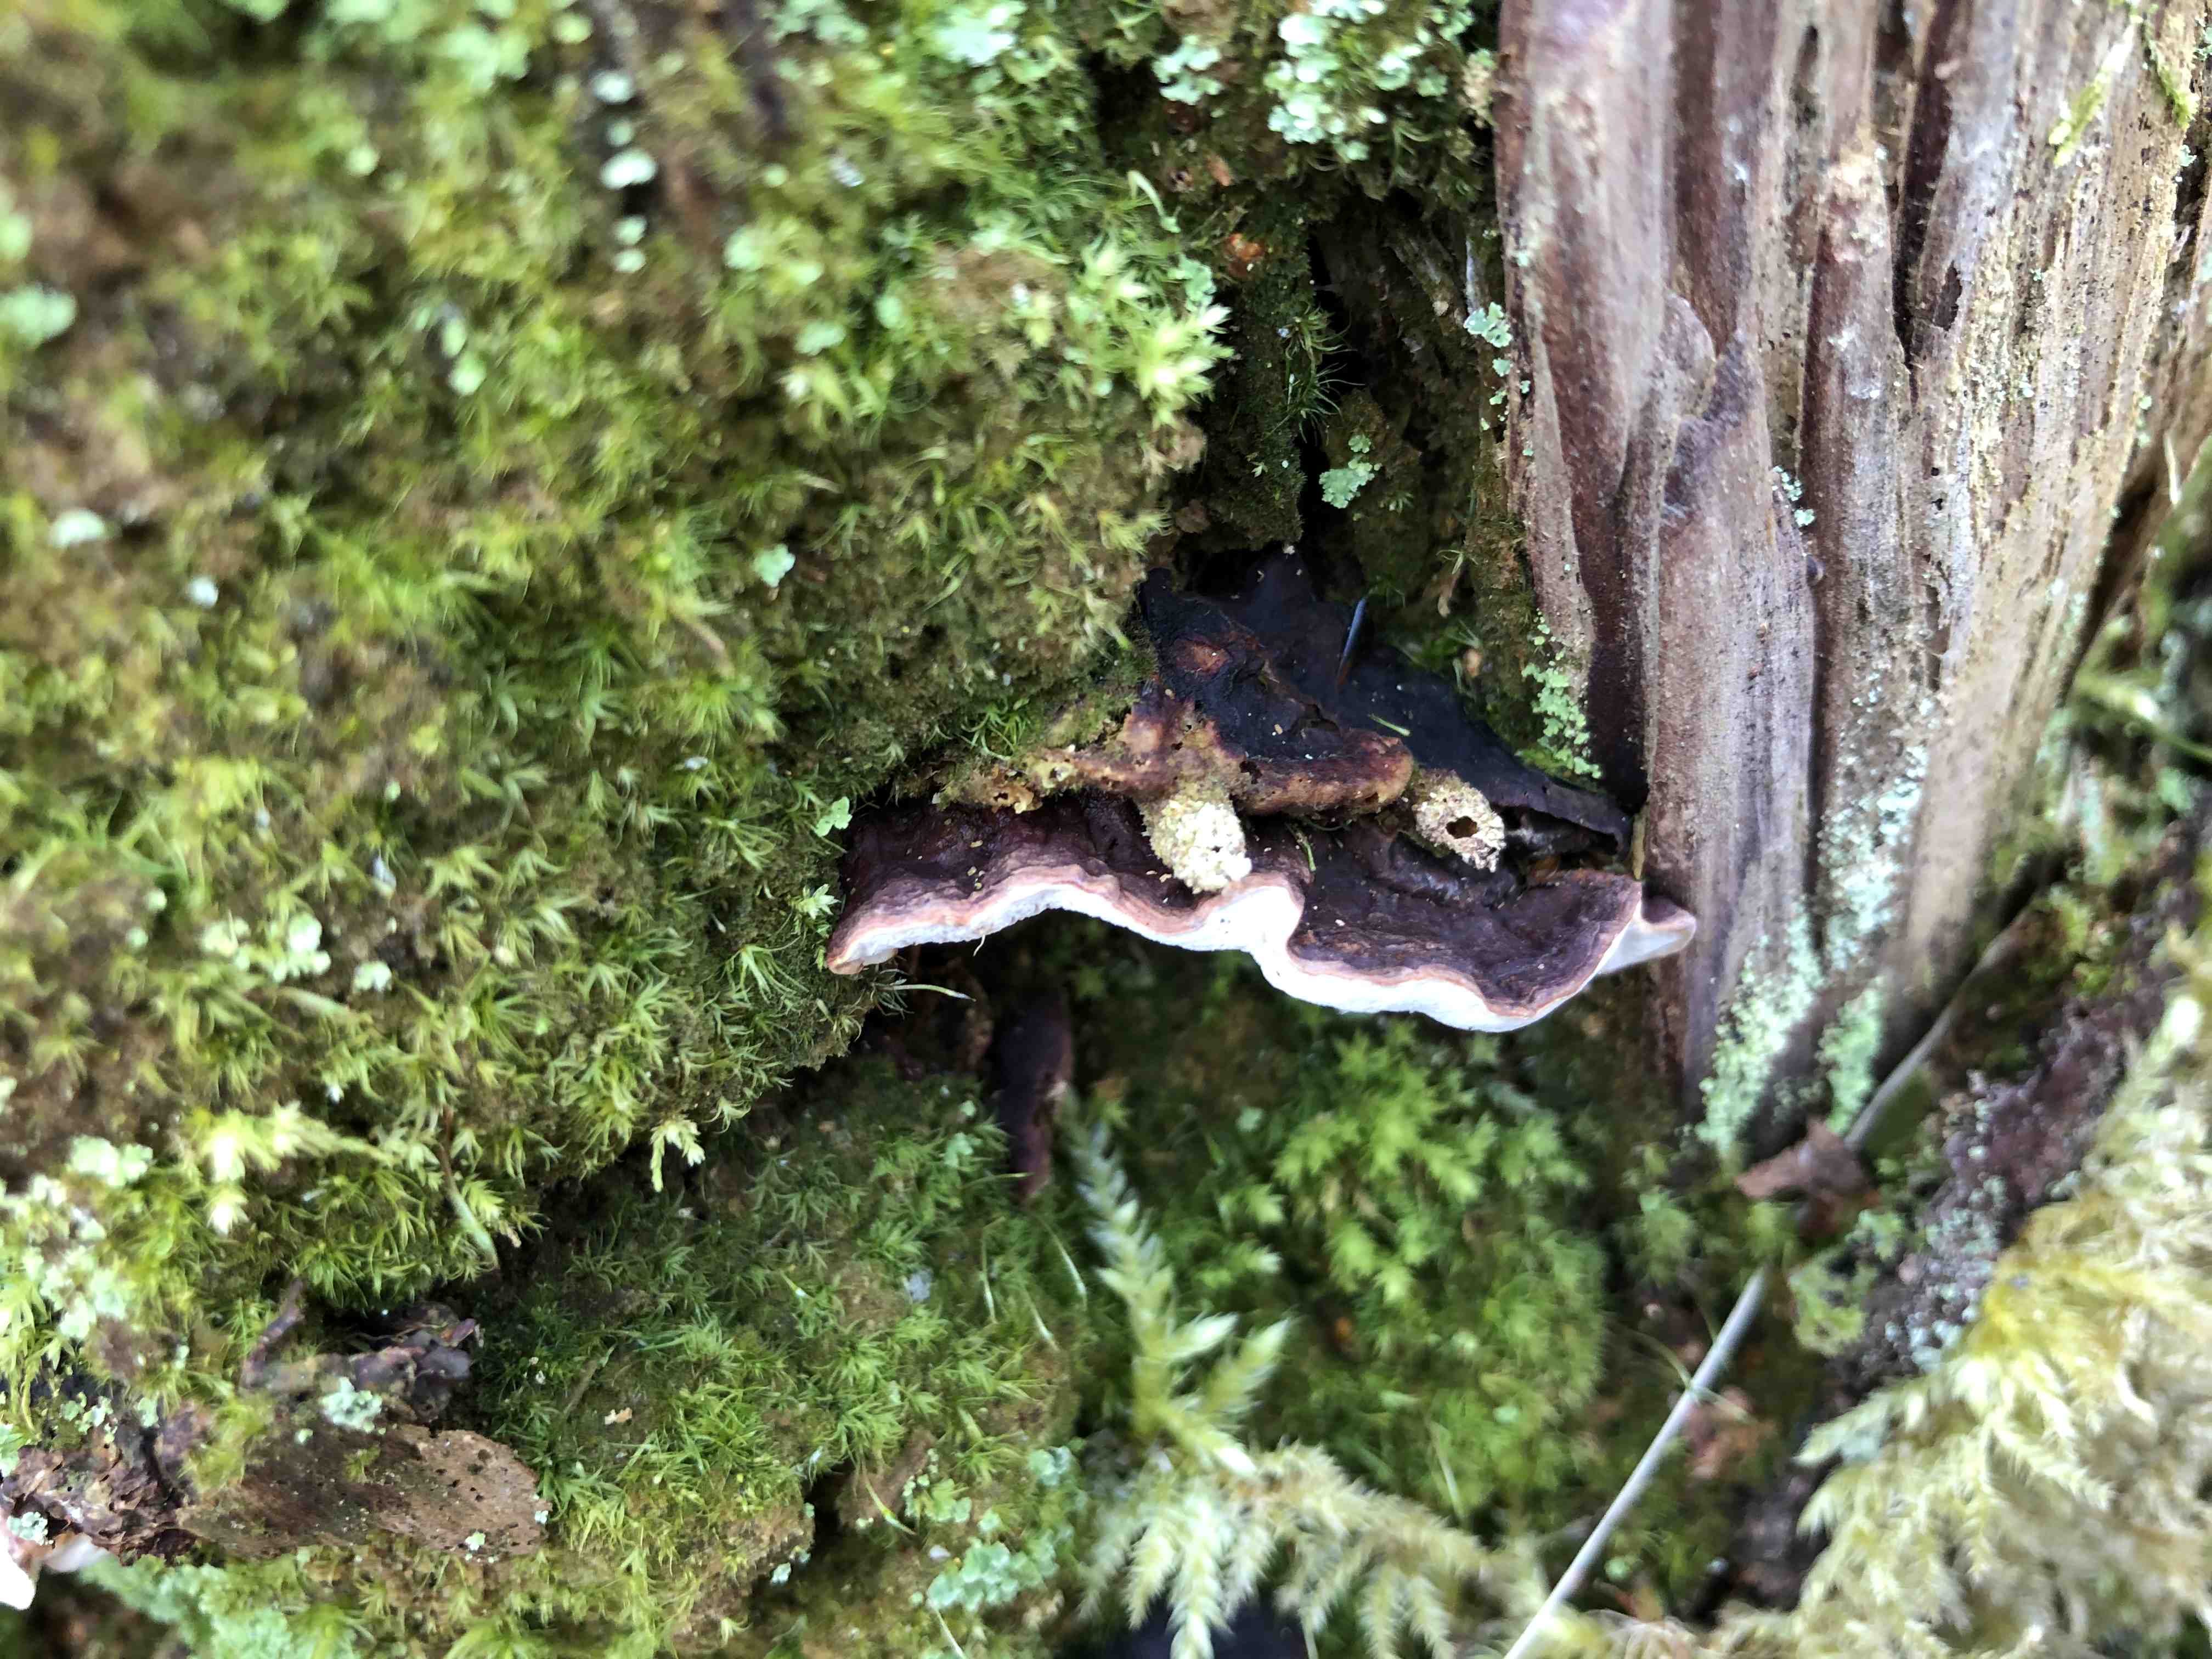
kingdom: Fungi
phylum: Basidiomycota
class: Agaricomycetes
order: Russulales
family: Bondarzewiaceae
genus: Heterobasidion
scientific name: Heterobasidion annosum
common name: almindelig rodfordærver
